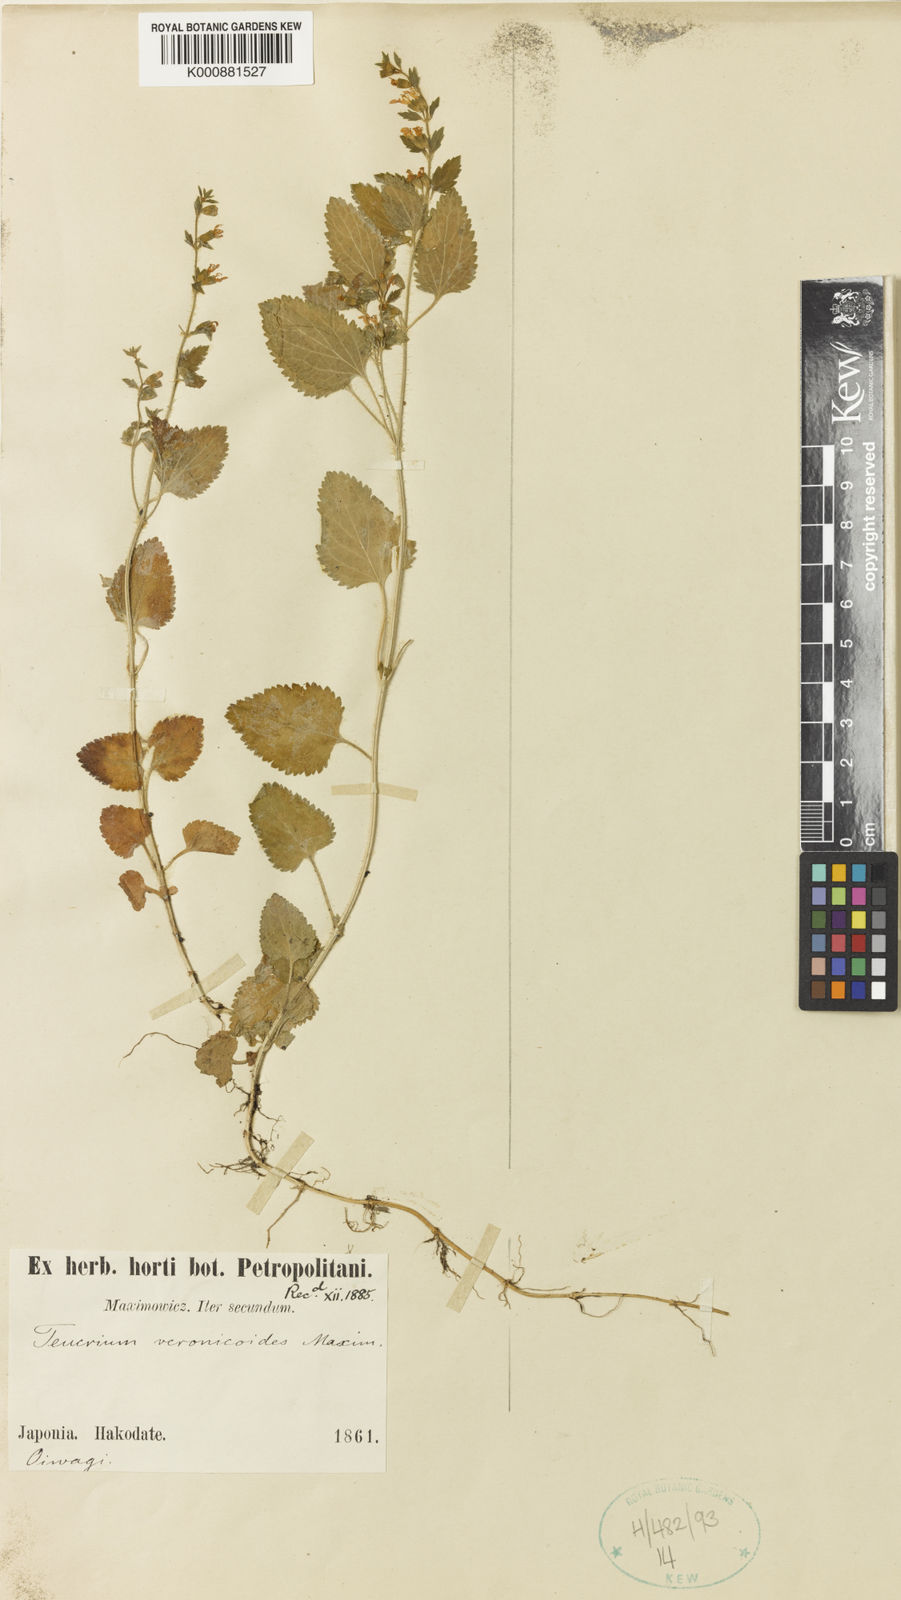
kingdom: Plantae
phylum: Tracheophyta
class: Magnoliopsida
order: Lamiales
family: Lamiaceae
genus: Teucrium
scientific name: Teucrium veronicoides
